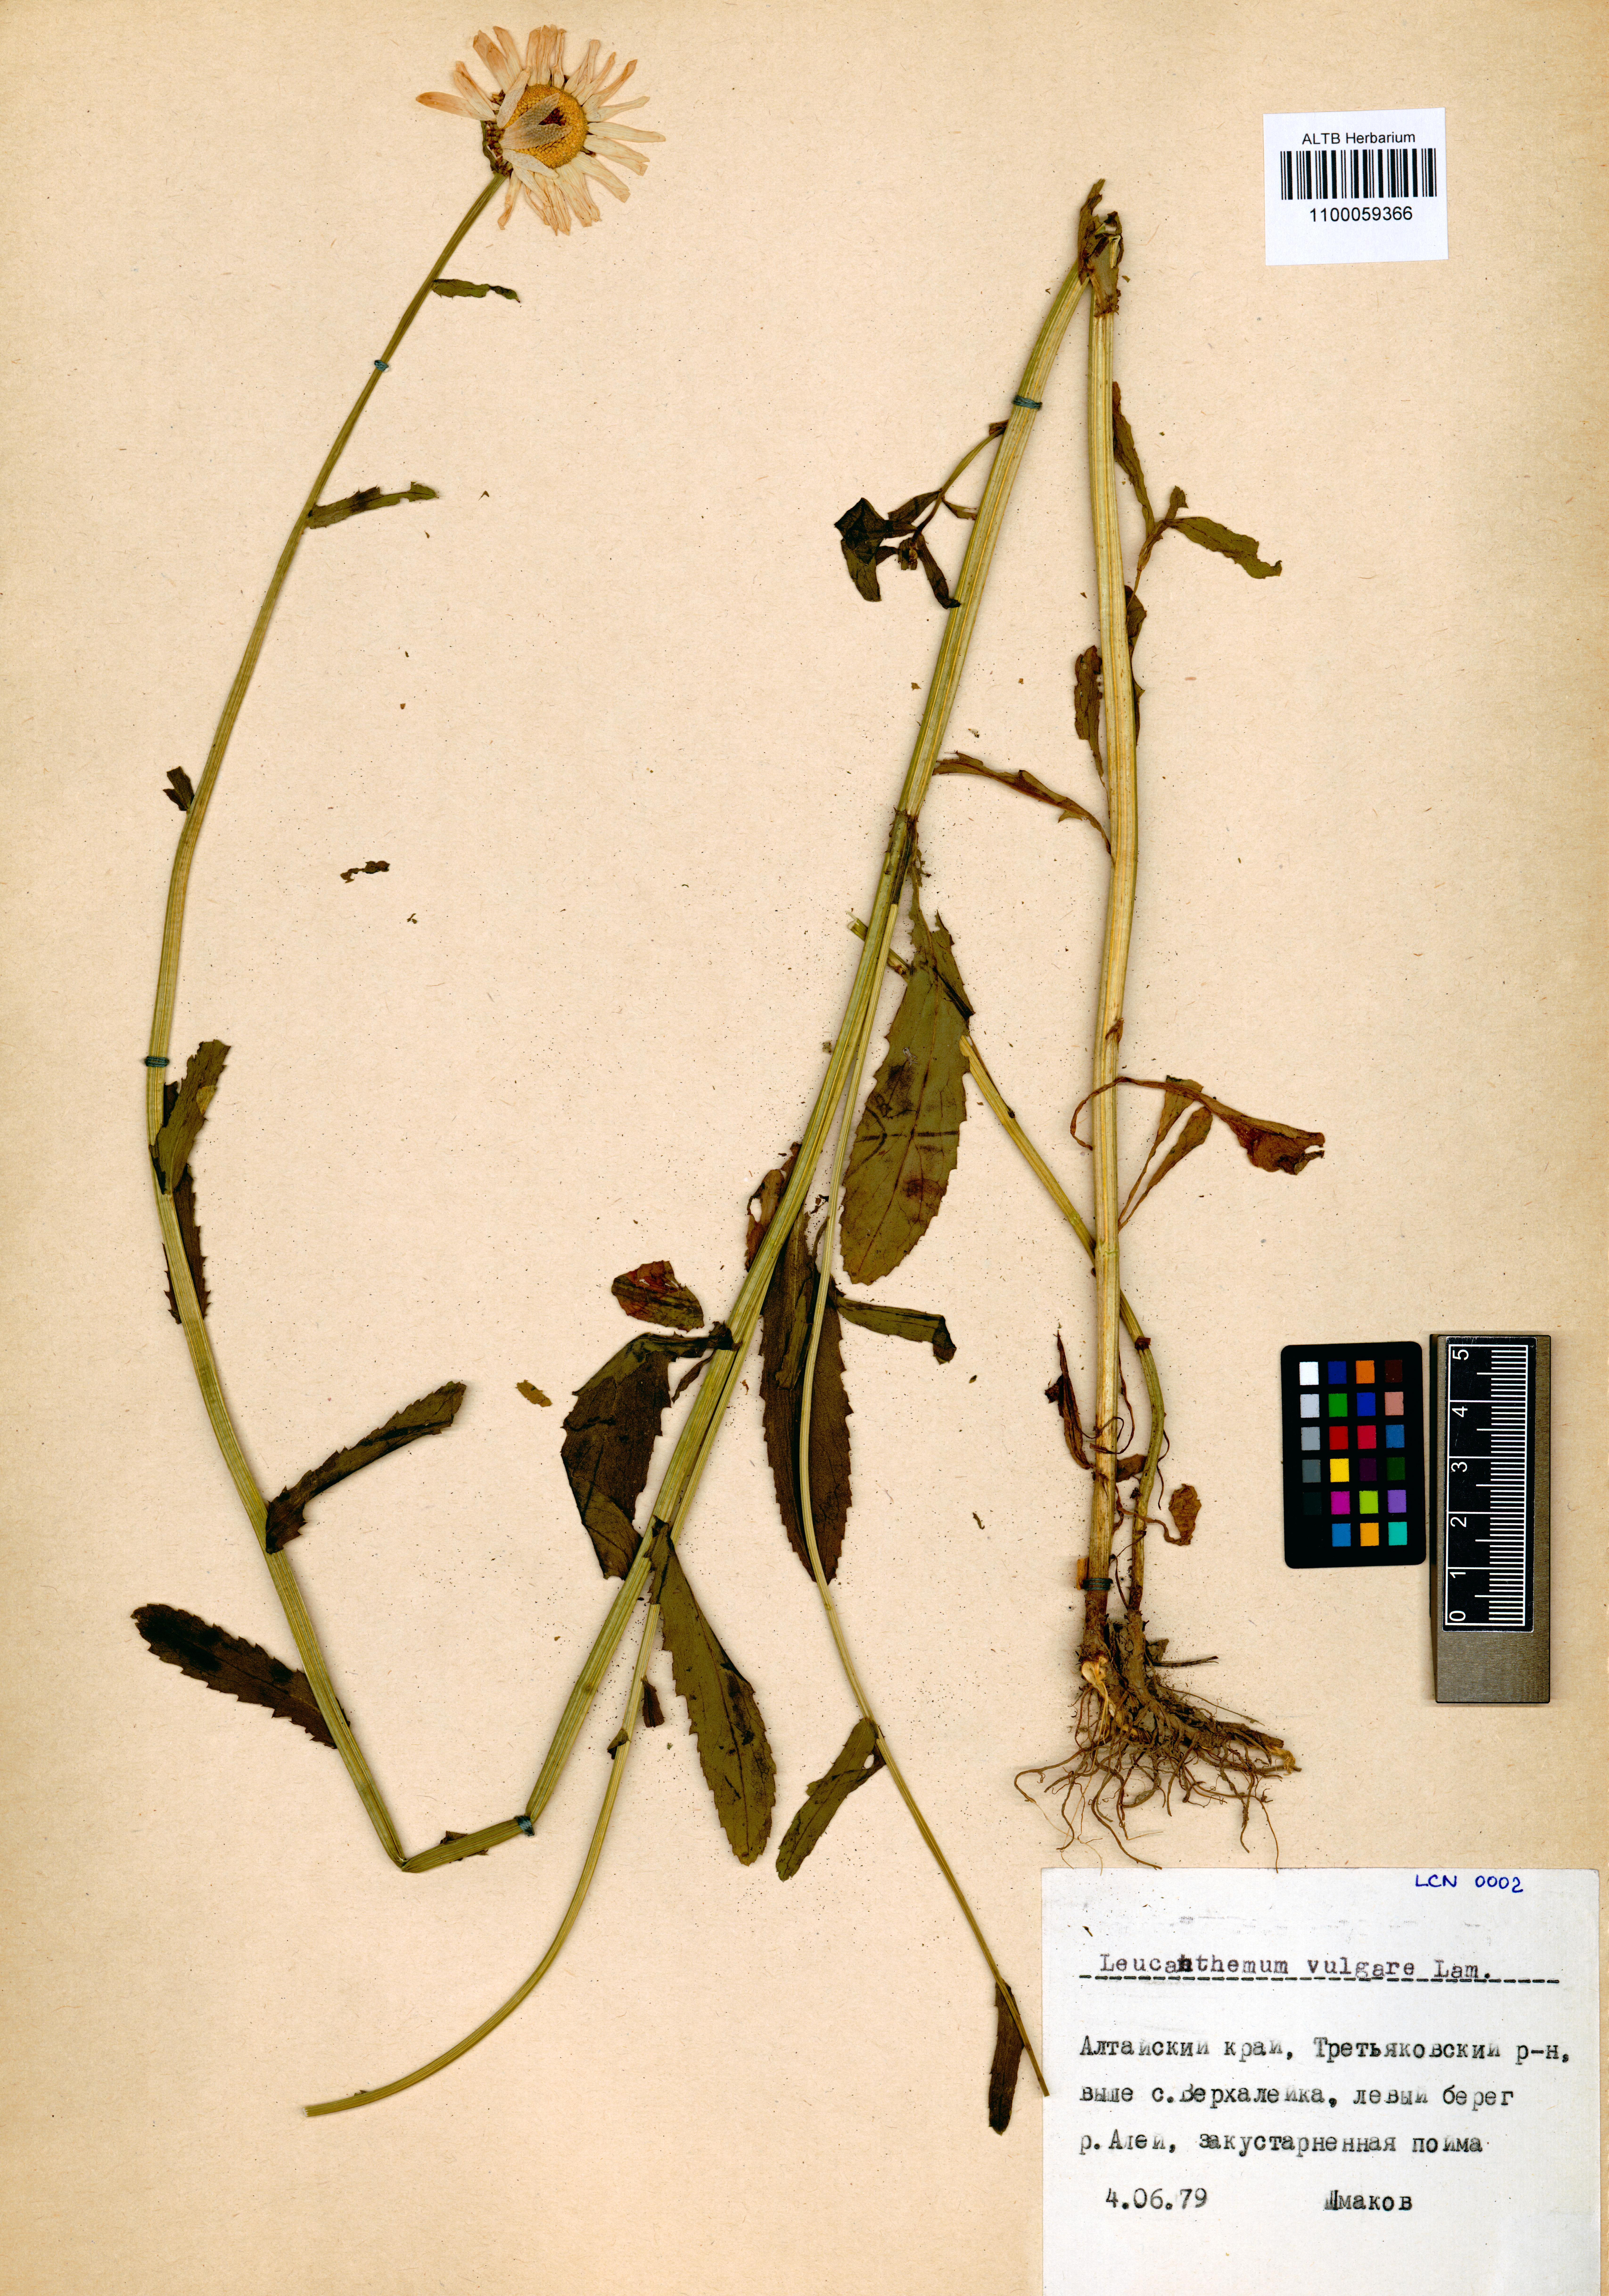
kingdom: Plantae
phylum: Tracheophyta
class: Magnoliopsida
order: Asterales
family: Asteraceae
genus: Leucanthemum
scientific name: Leucanthemum vulgare
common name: Oxeye daisy
